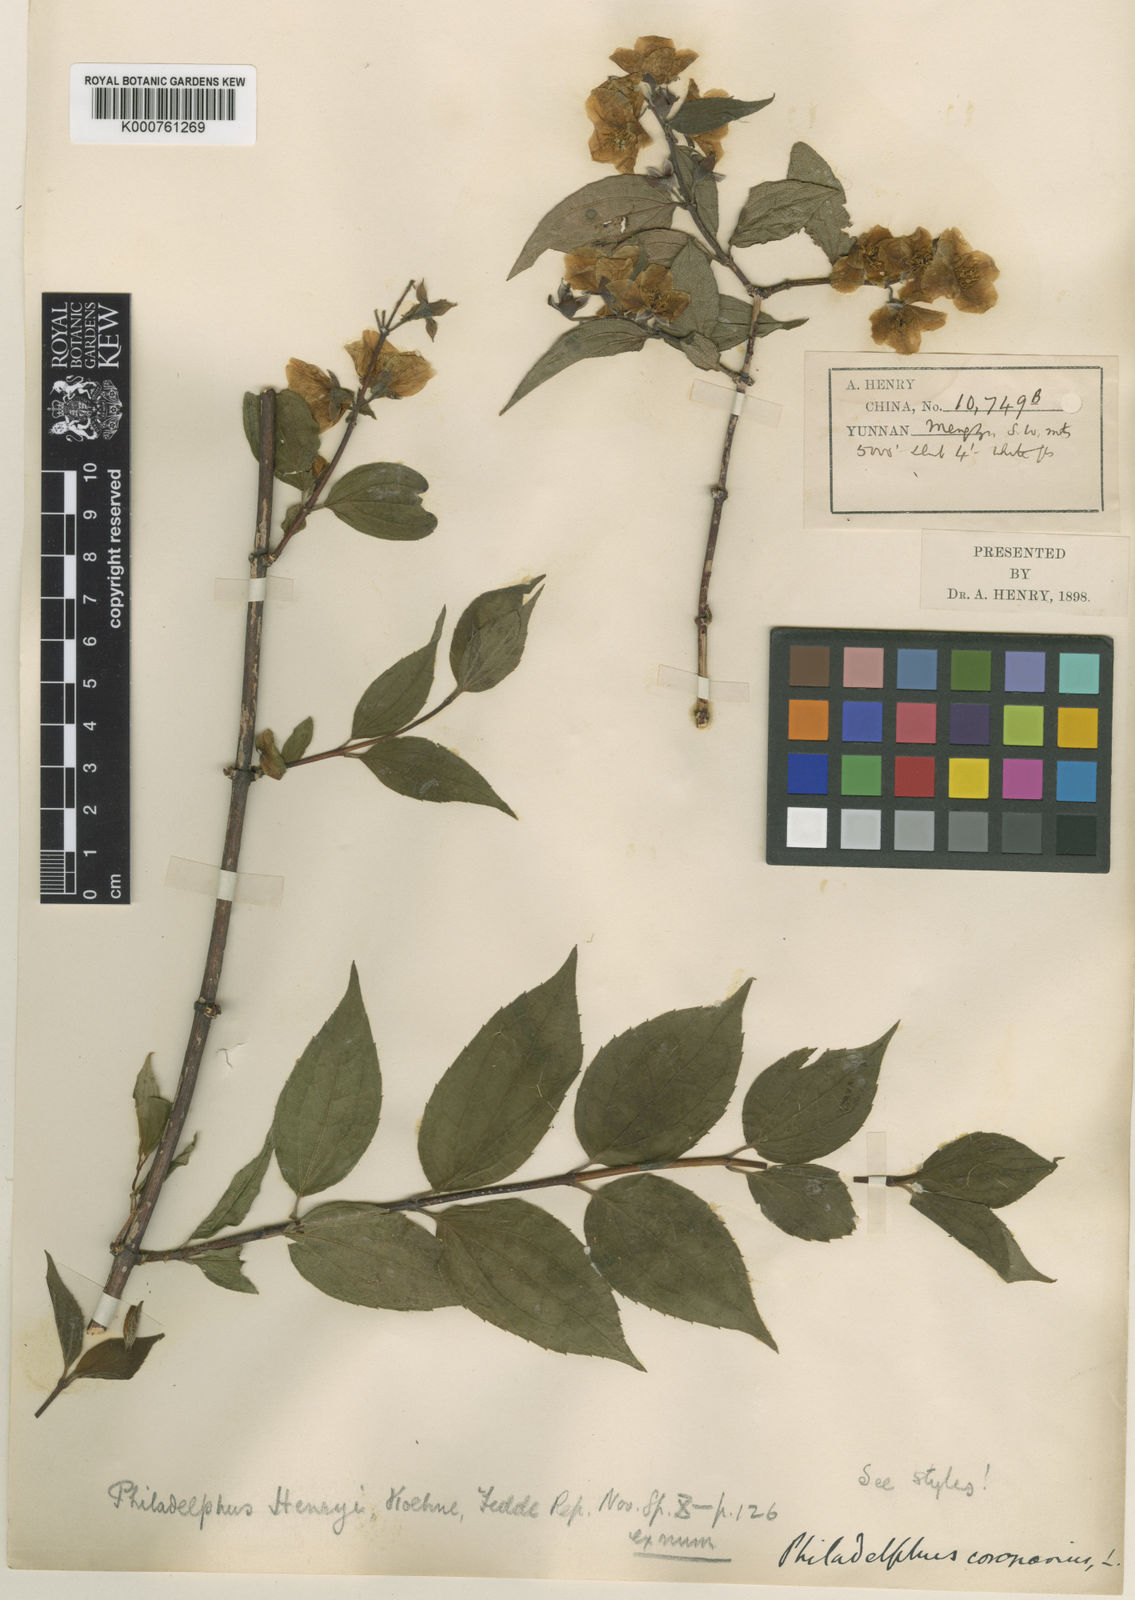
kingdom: Plantae
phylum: Tracheophyta
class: Magnoliopsida
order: Cornales
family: Hydrangeaceae
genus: Philadelphus
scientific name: Philadelphus henryi
